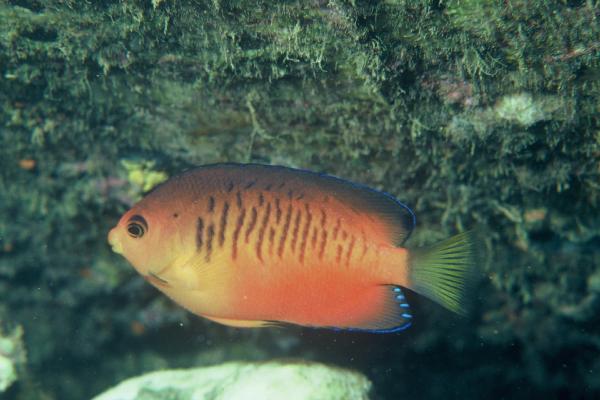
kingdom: Animalia
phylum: Chordata
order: Perciformes
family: Pomacanthidae
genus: Centropyge
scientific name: Centropyge shepardi
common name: Shepard's angelfish
